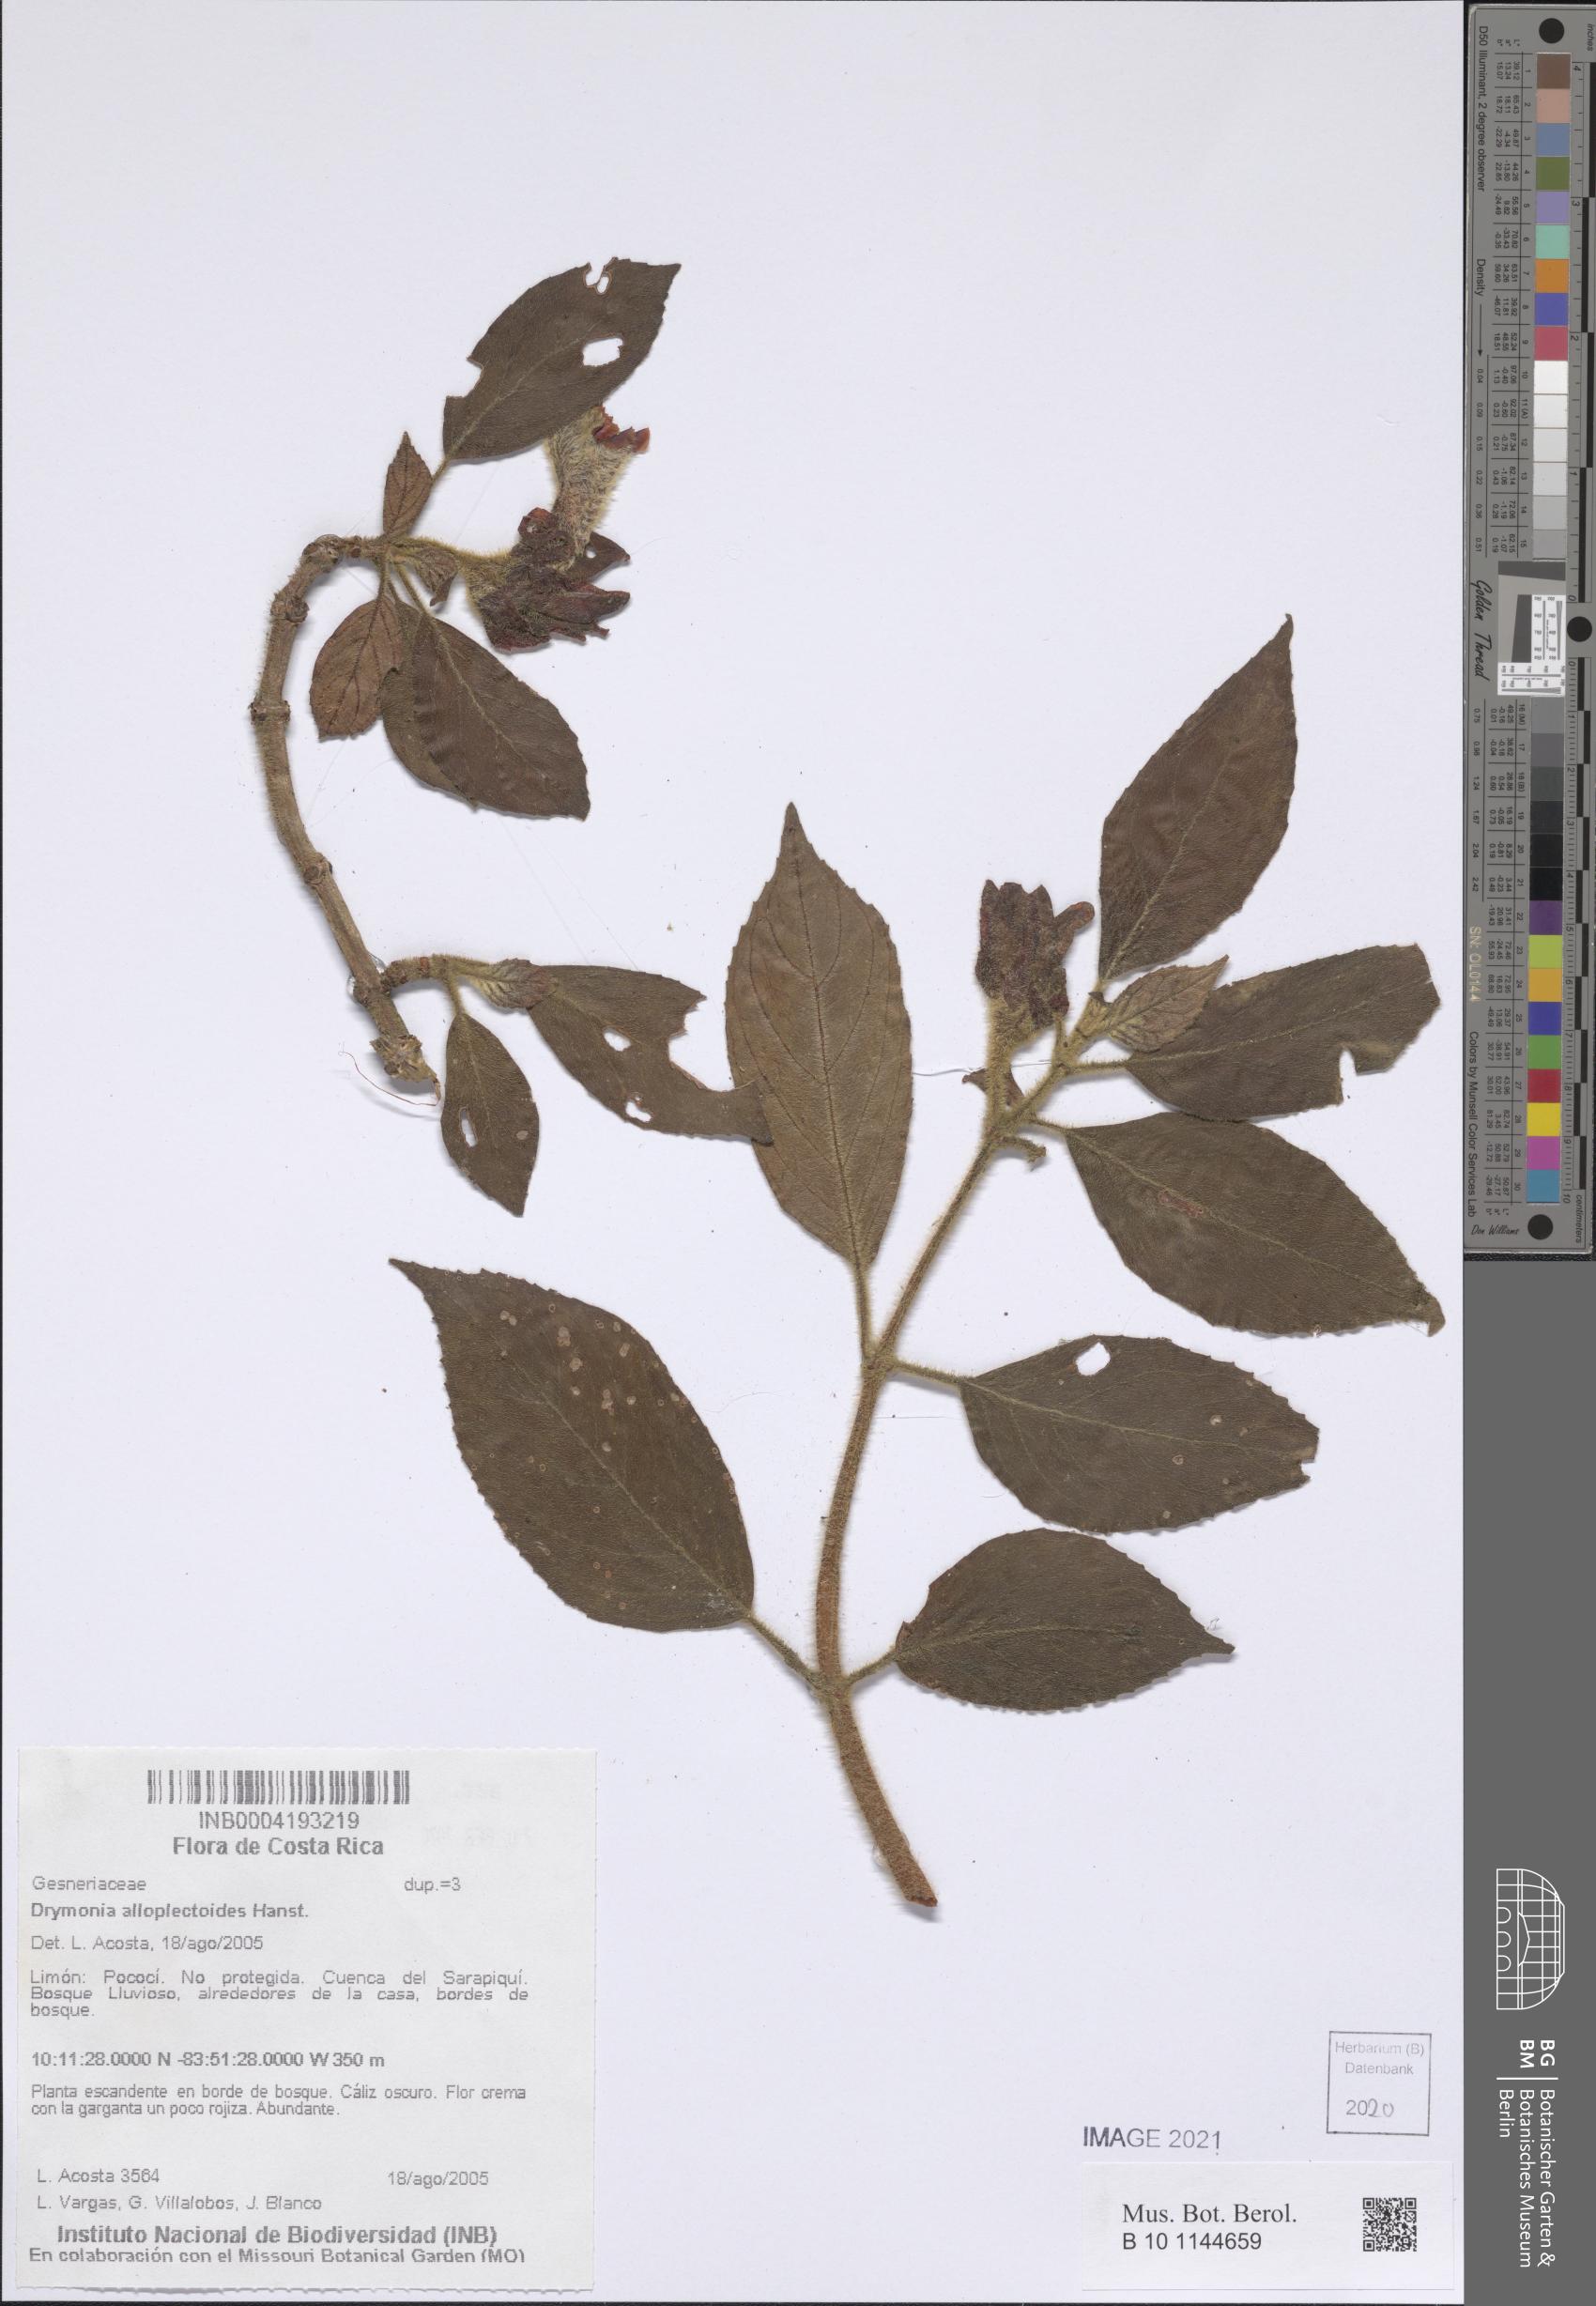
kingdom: Plantae
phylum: Tracheophyta
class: Magnoliopsida
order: Lamiales
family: Gesneriaceae
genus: Drymonia
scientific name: Drymonia alloplectoides
